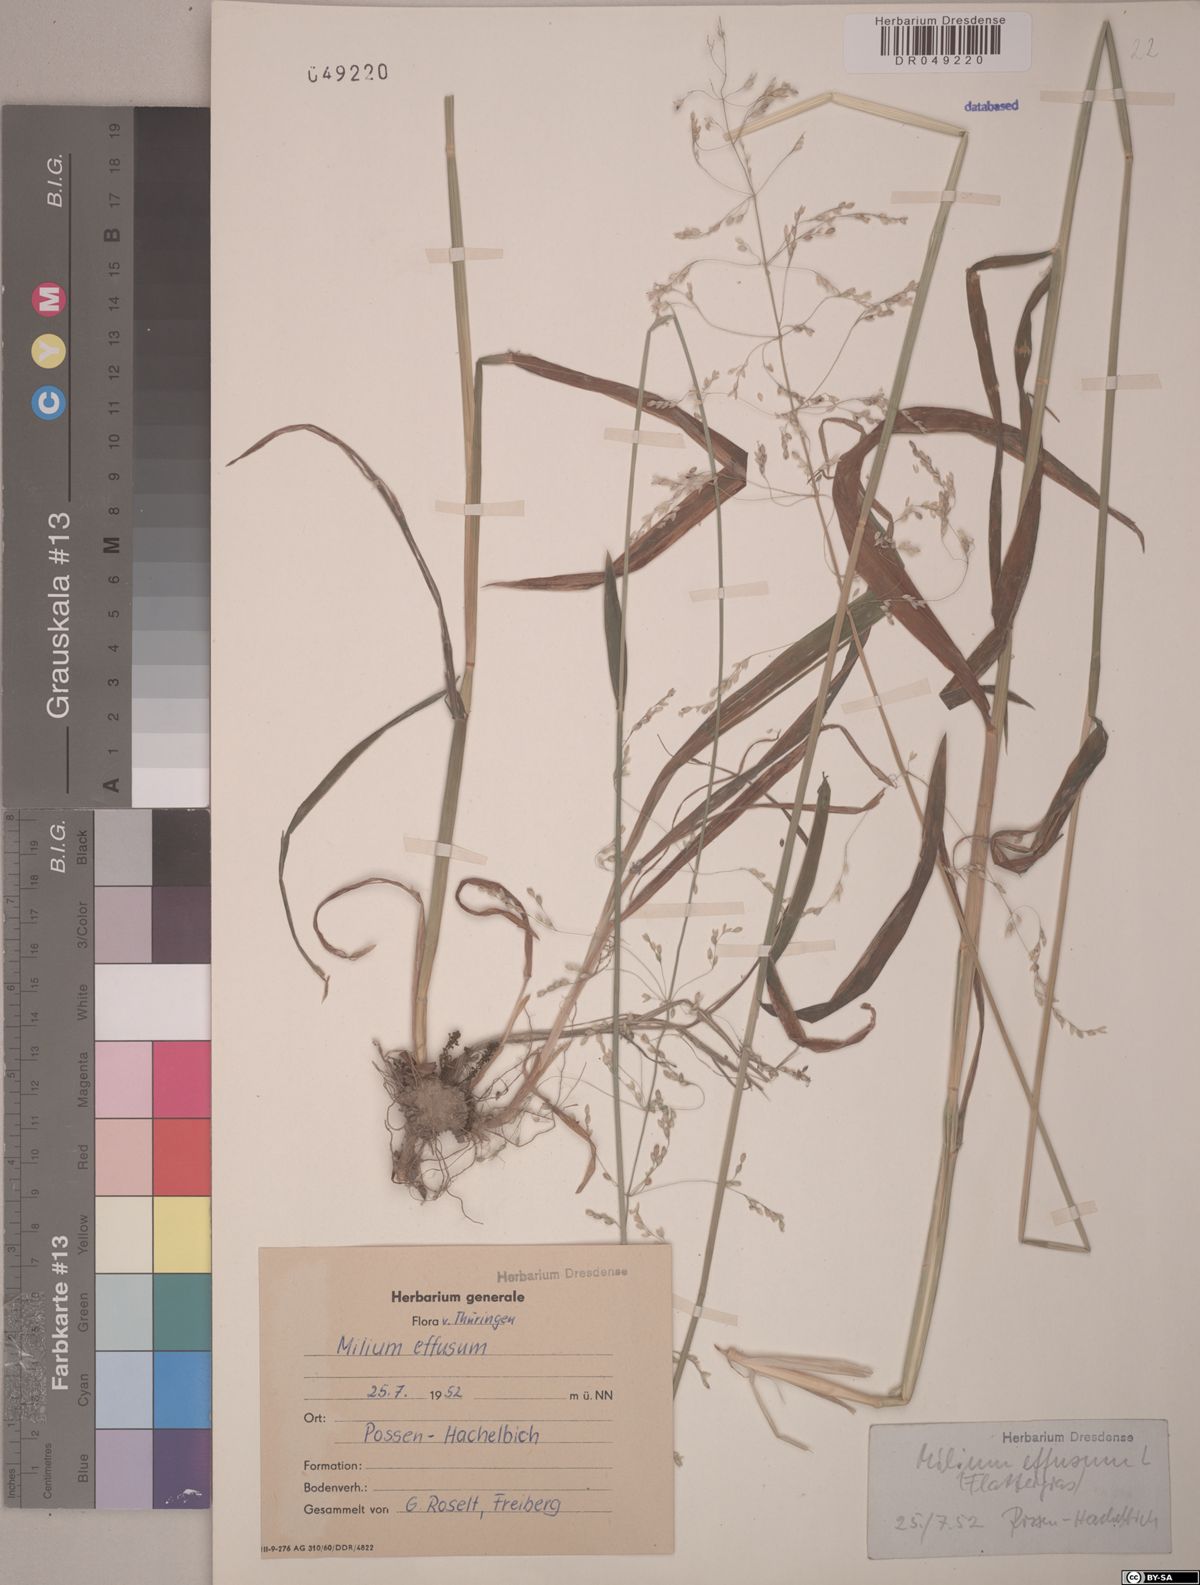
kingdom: Plantae
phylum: Tracheophyta
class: Liliopsida
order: Poales
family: Poaceae
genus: Milium
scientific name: Milium effusum
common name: Wood millet
